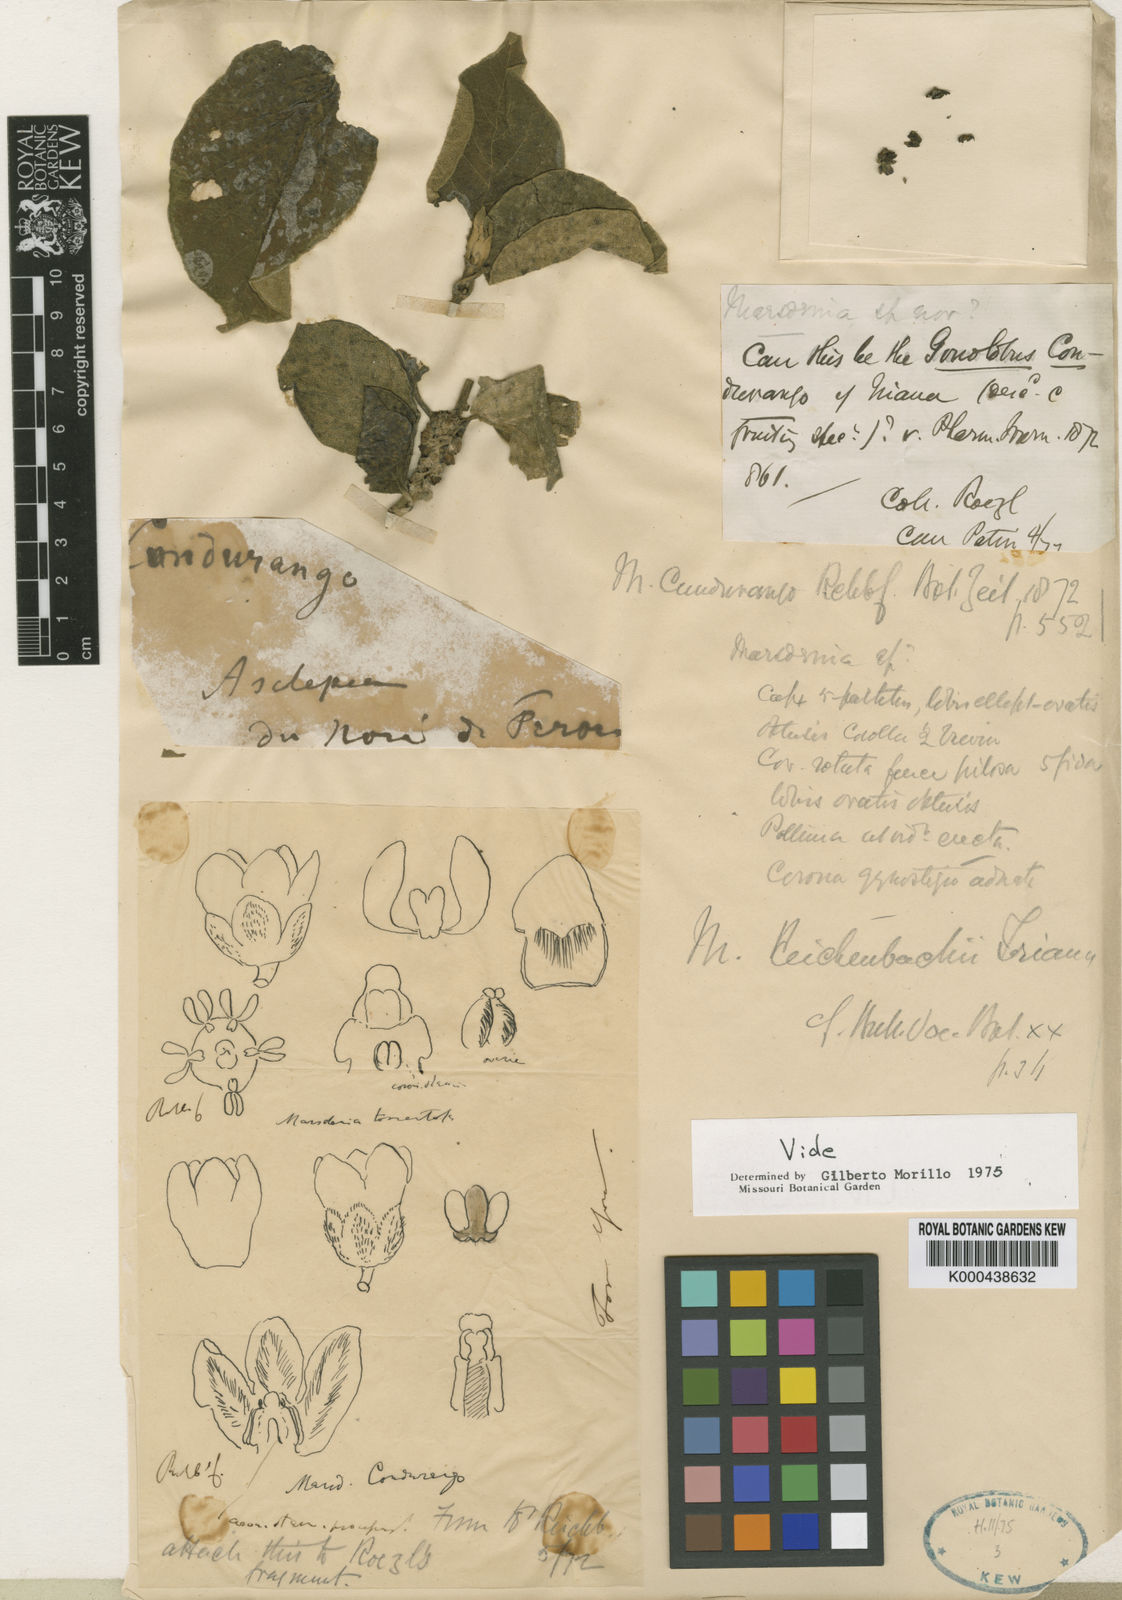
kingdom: Plantae
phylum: Tracheophyta
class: Magnoliopsida
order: Gentianales
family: Apocynaceae
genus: Ruehssia
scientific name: Ruehssia cundurango
